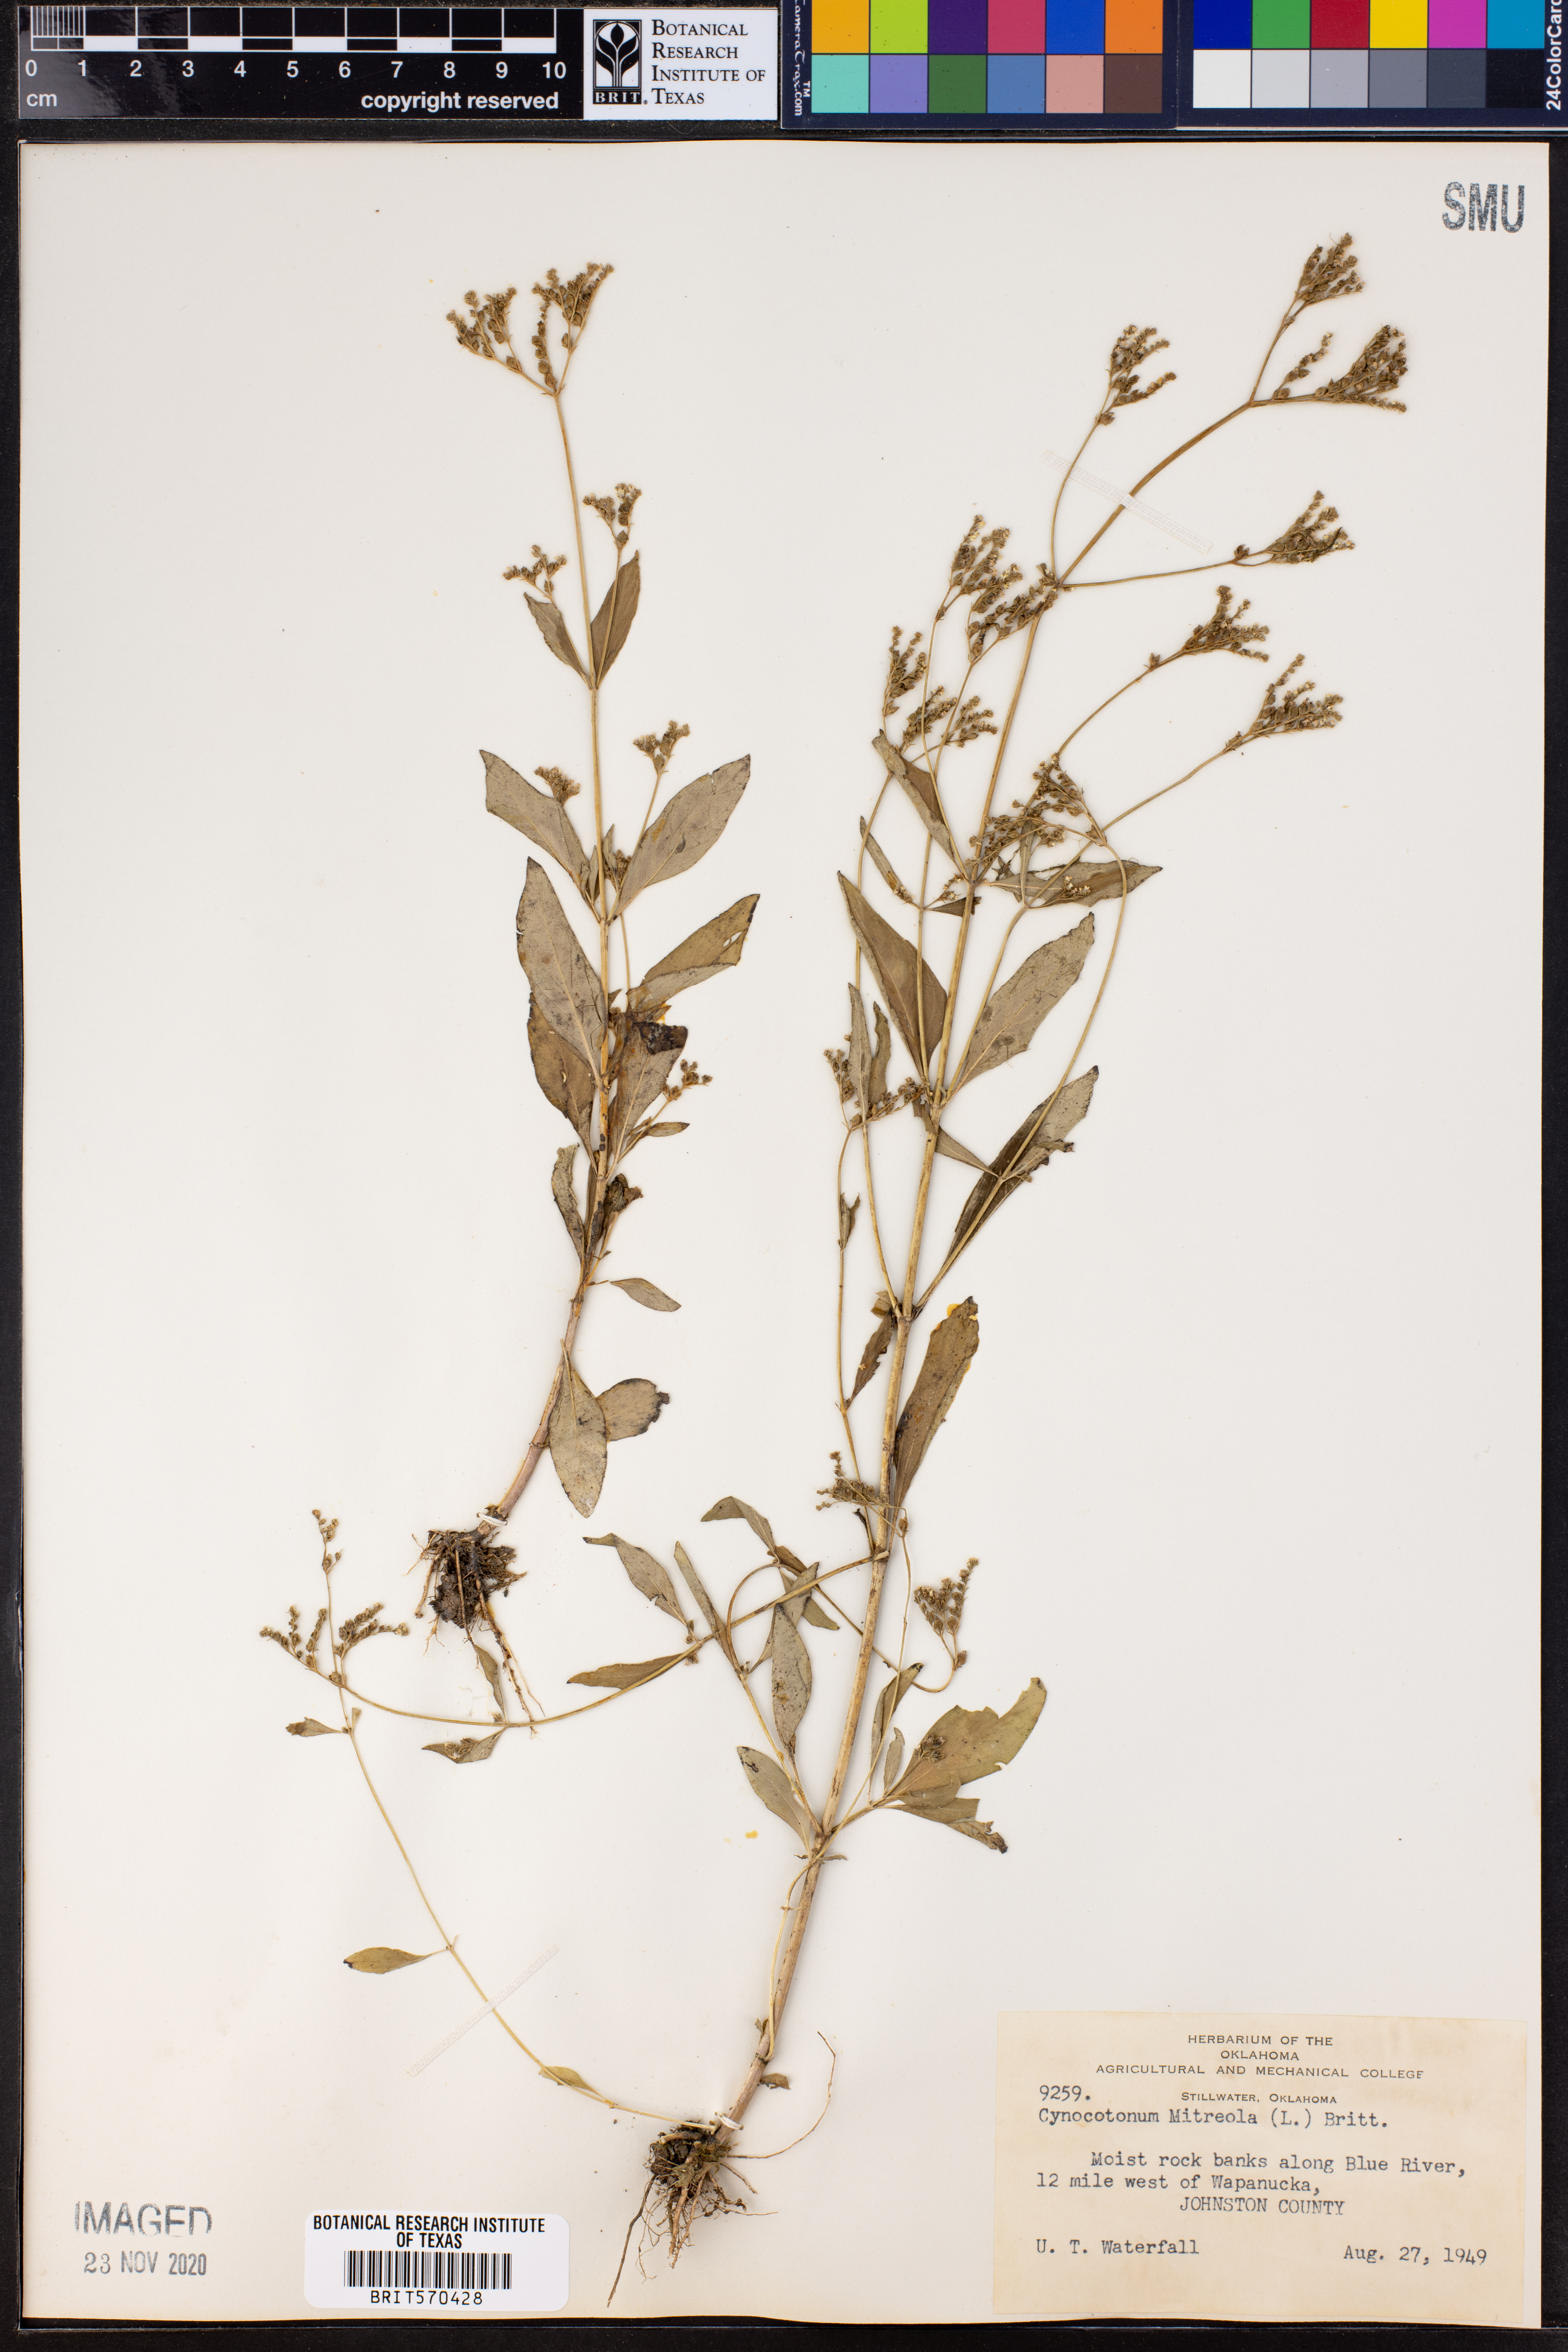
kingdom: Plantae
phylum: Tracheophyta
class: Magnoliopsida
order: Gentianales
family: Loganiaceae
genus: Mitreola
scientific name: Mitreola petiolata
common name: Lax hornpod
